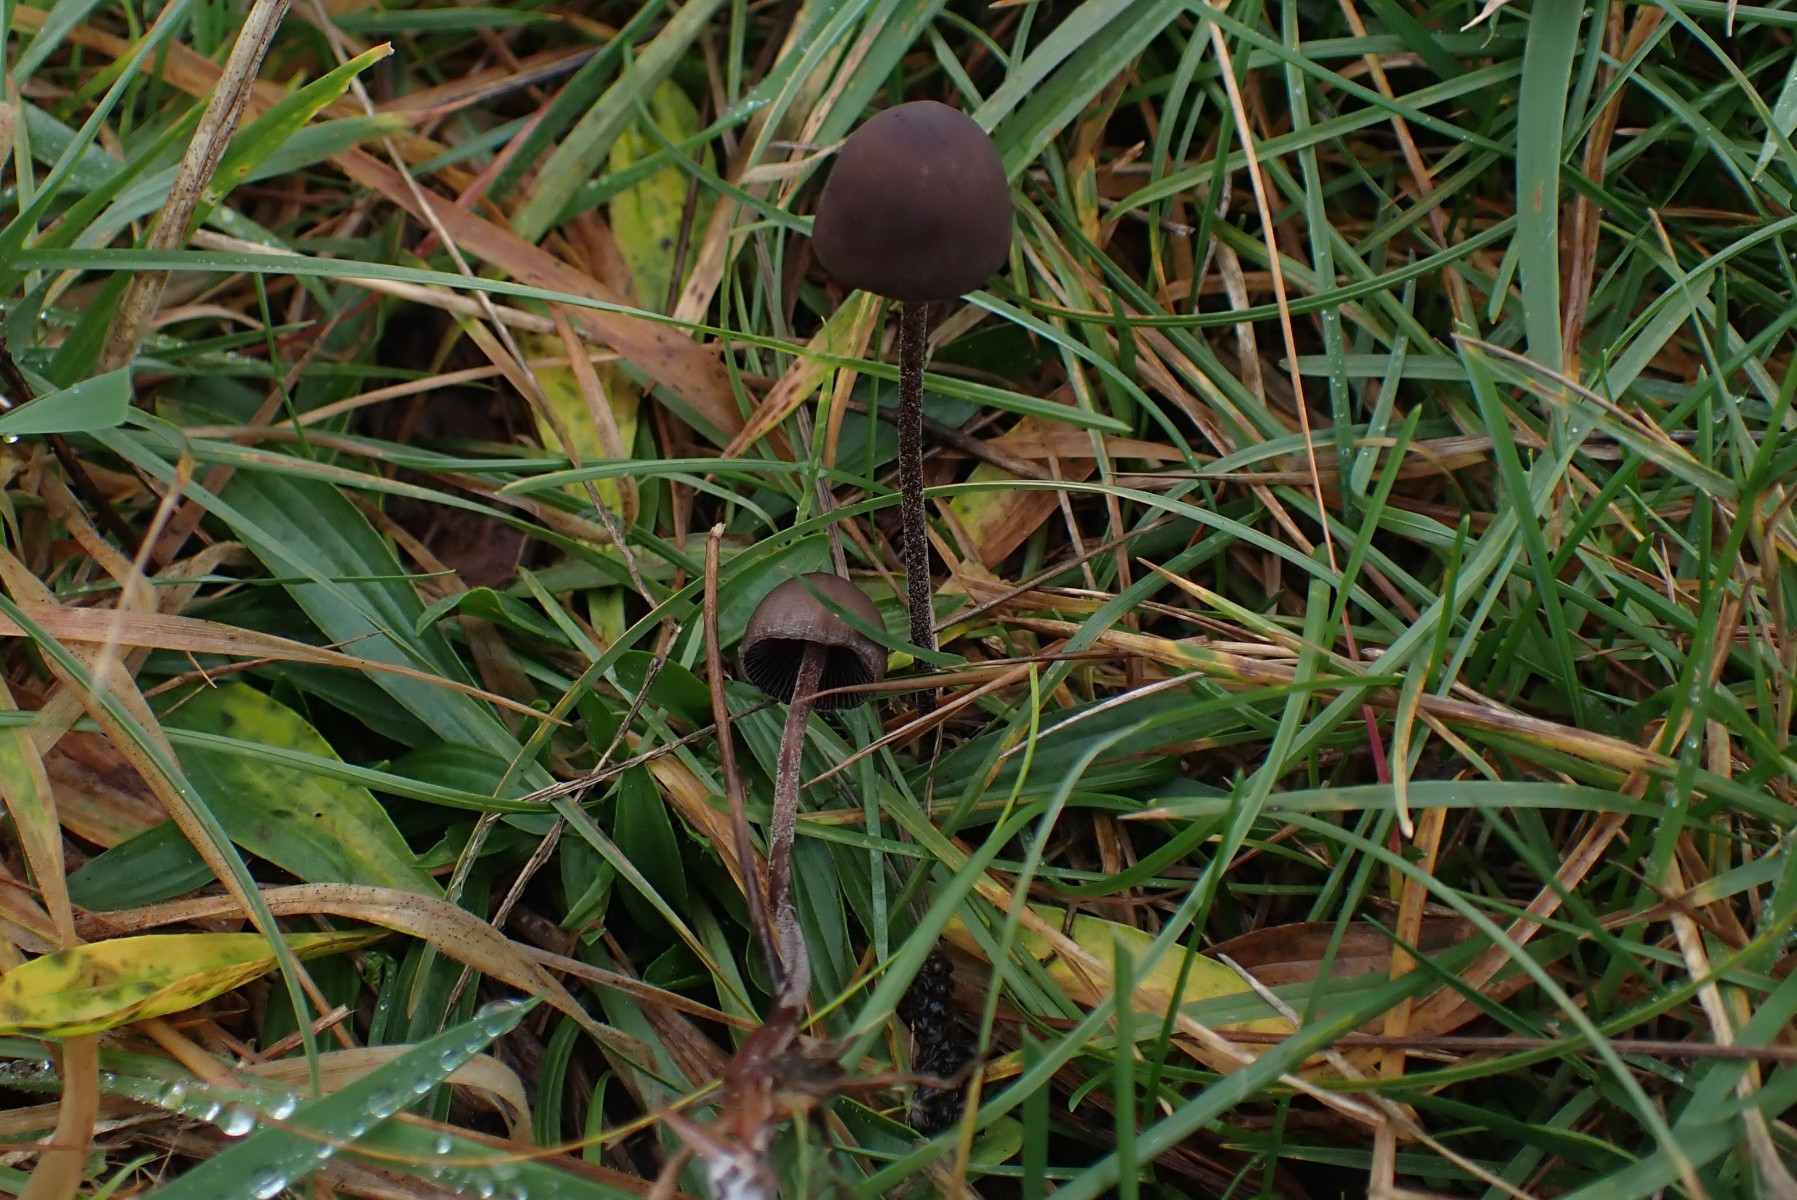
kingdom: Fungi
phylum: Basidiomycota
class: Agaricomycetes
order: Agaricales
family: Bolbitiaceae
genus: Panaeolus
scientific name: Panaeolus acuminatus
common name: høj glanshat
